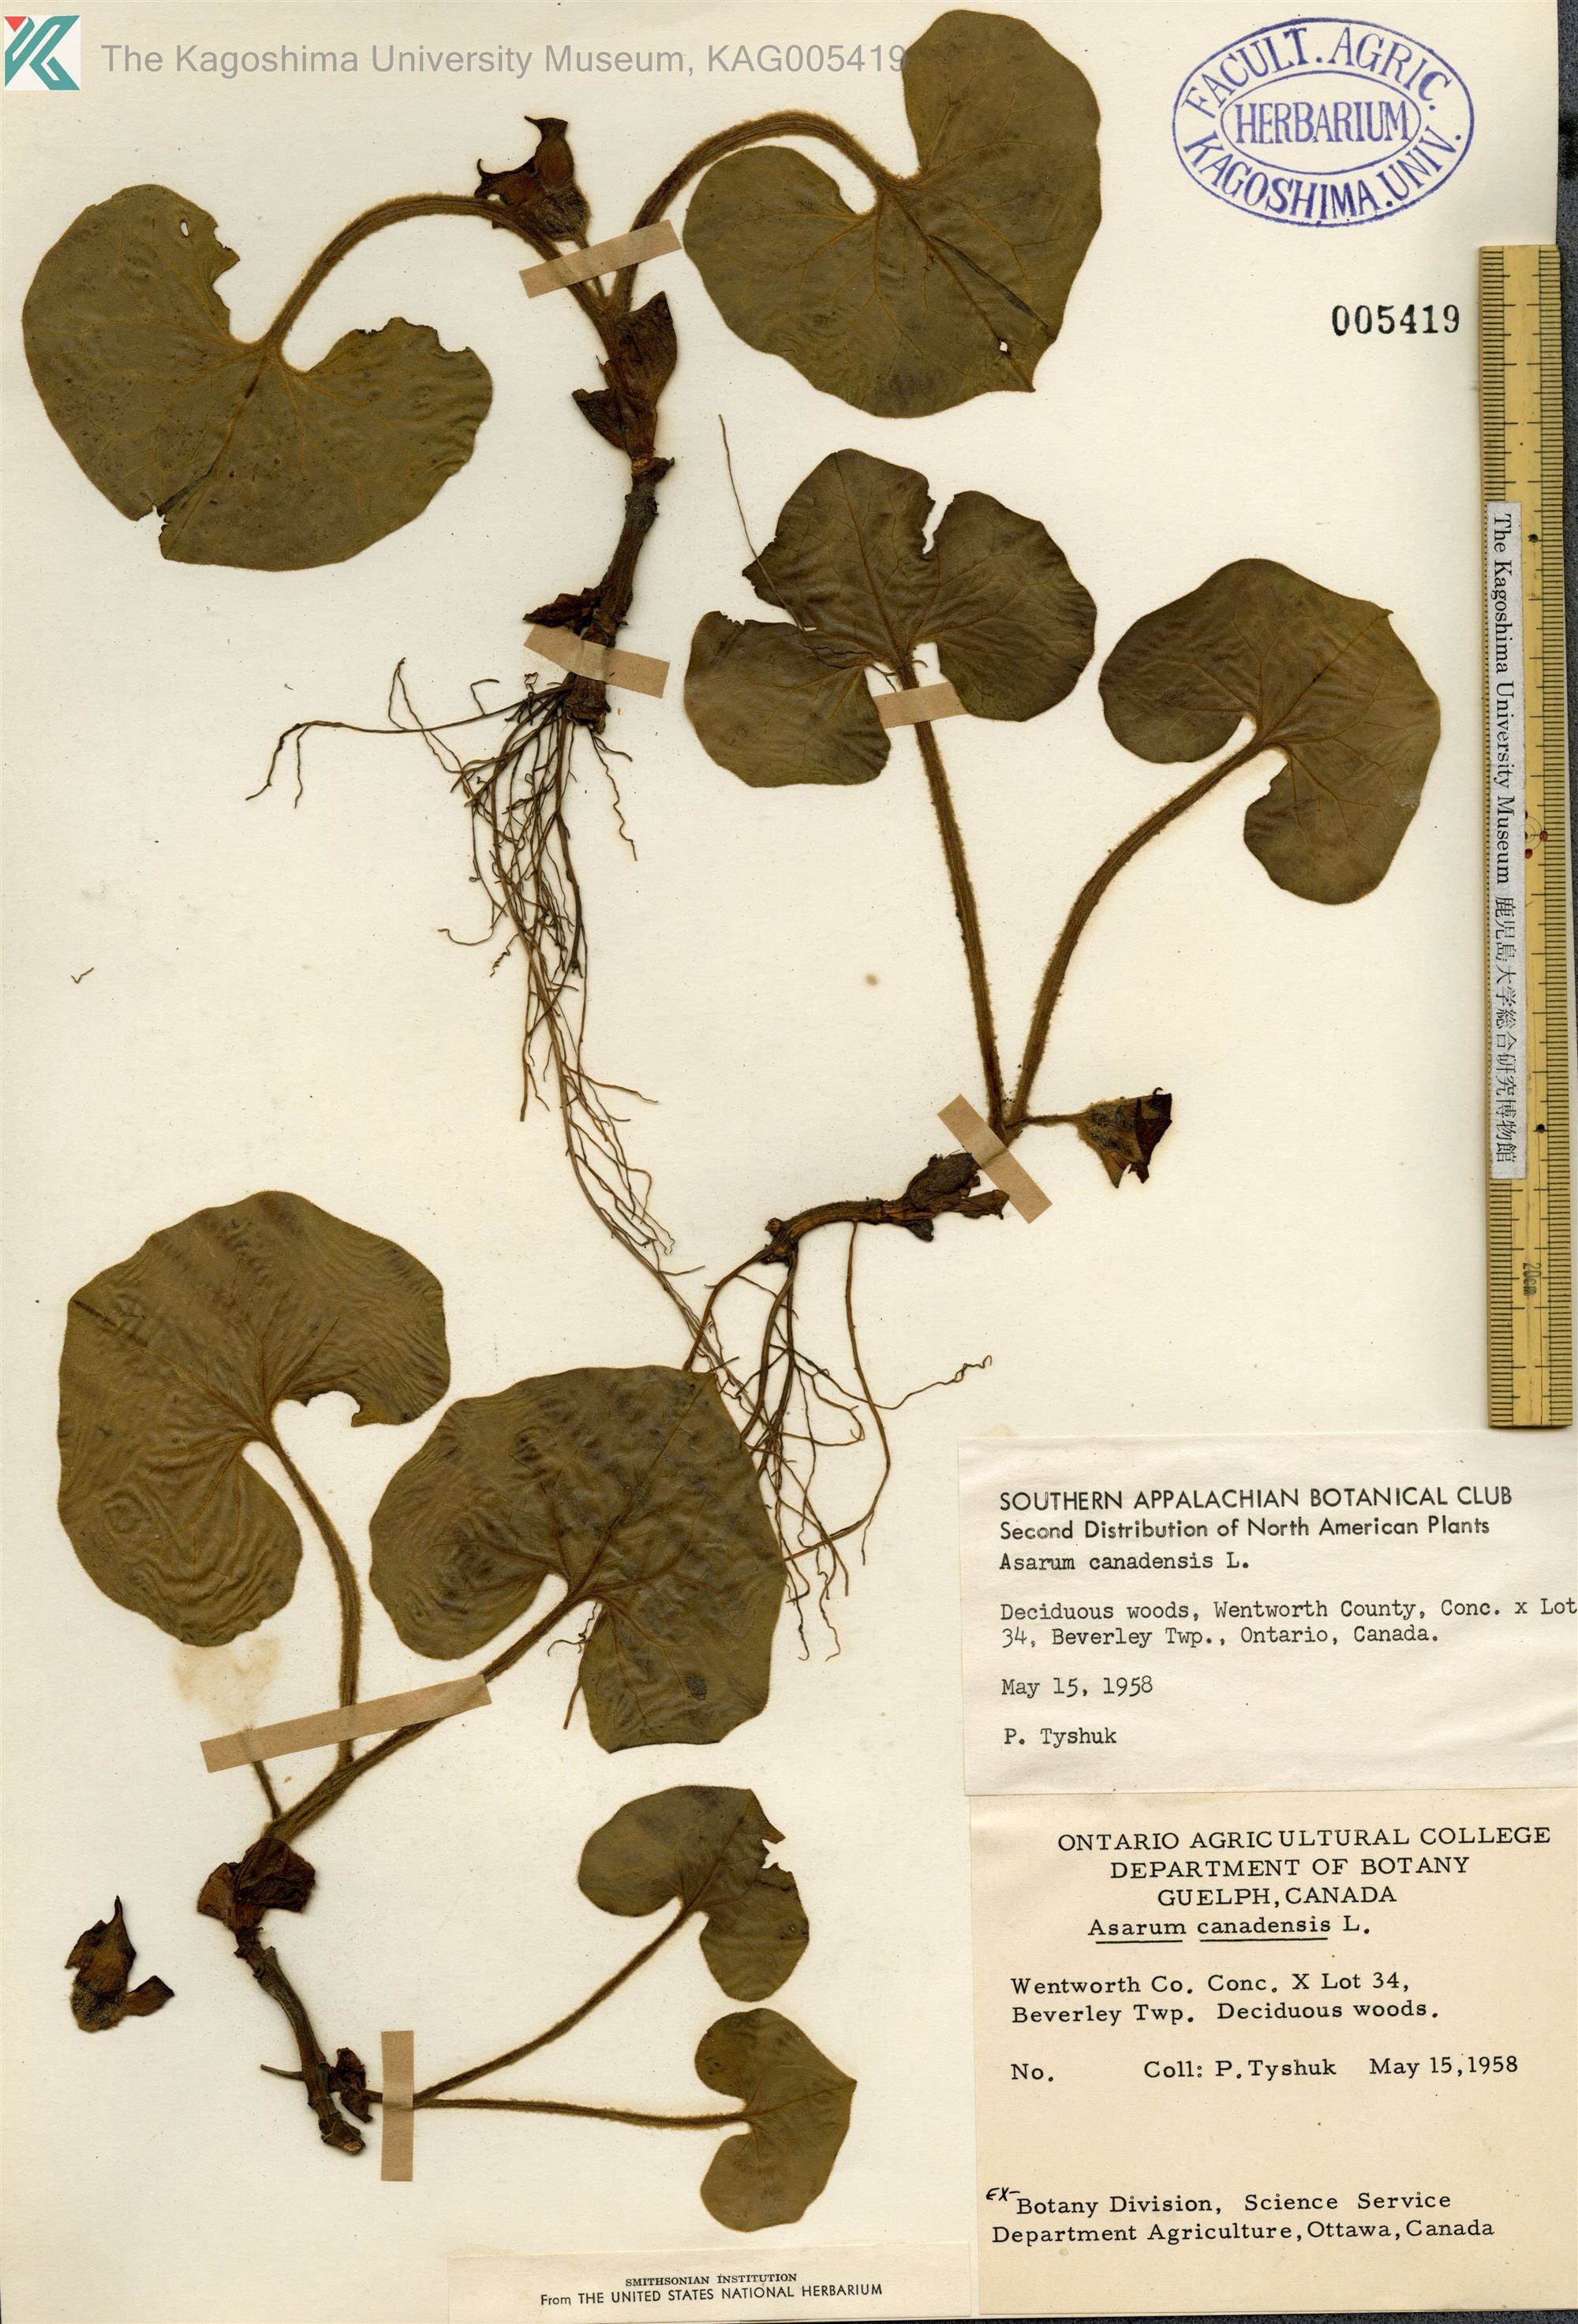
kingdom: Plantae
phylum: Tracheophyta
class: Magnoliopsida
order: Piperales
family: Aristolochiaceae
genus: Asarum
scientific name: Asarum canadense
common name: Wild ginger
